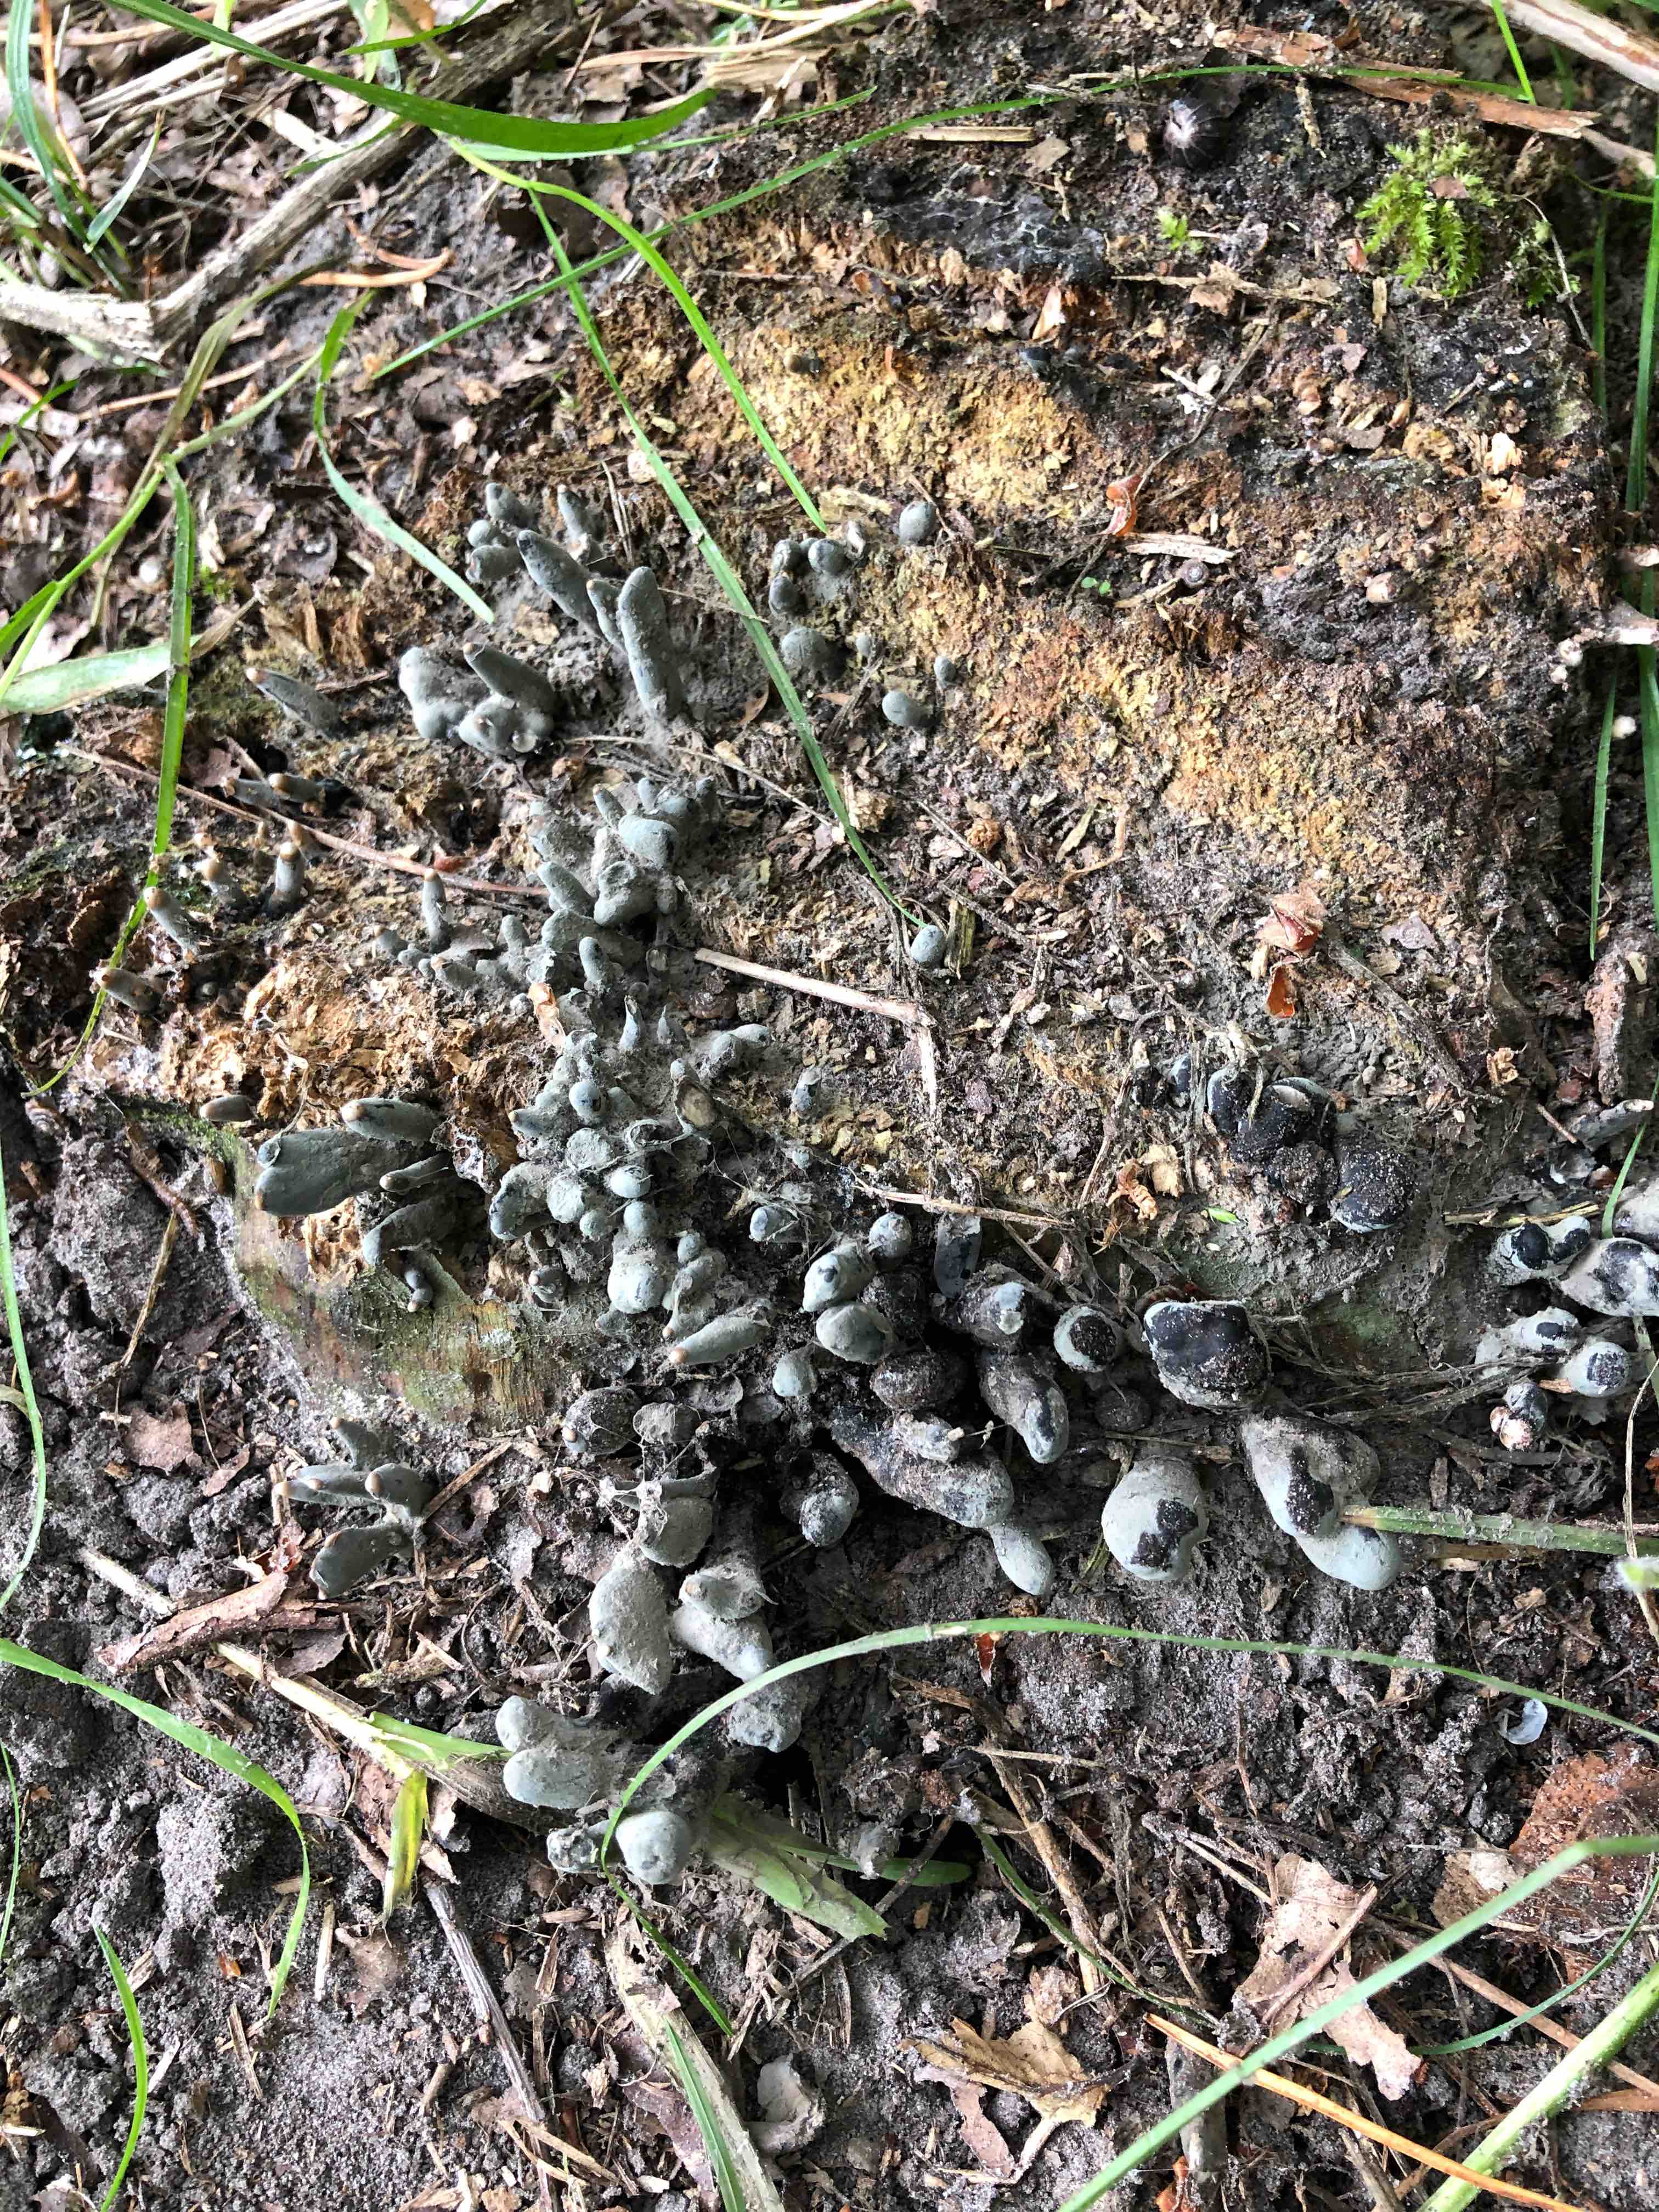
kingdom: Fungi
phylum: Ascomycota
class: Sordariomycetes
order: Xylariales
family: Xylariaceae
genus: Xylaria
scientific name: Xylaria polymorpha
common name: kølle-stødsvamp
